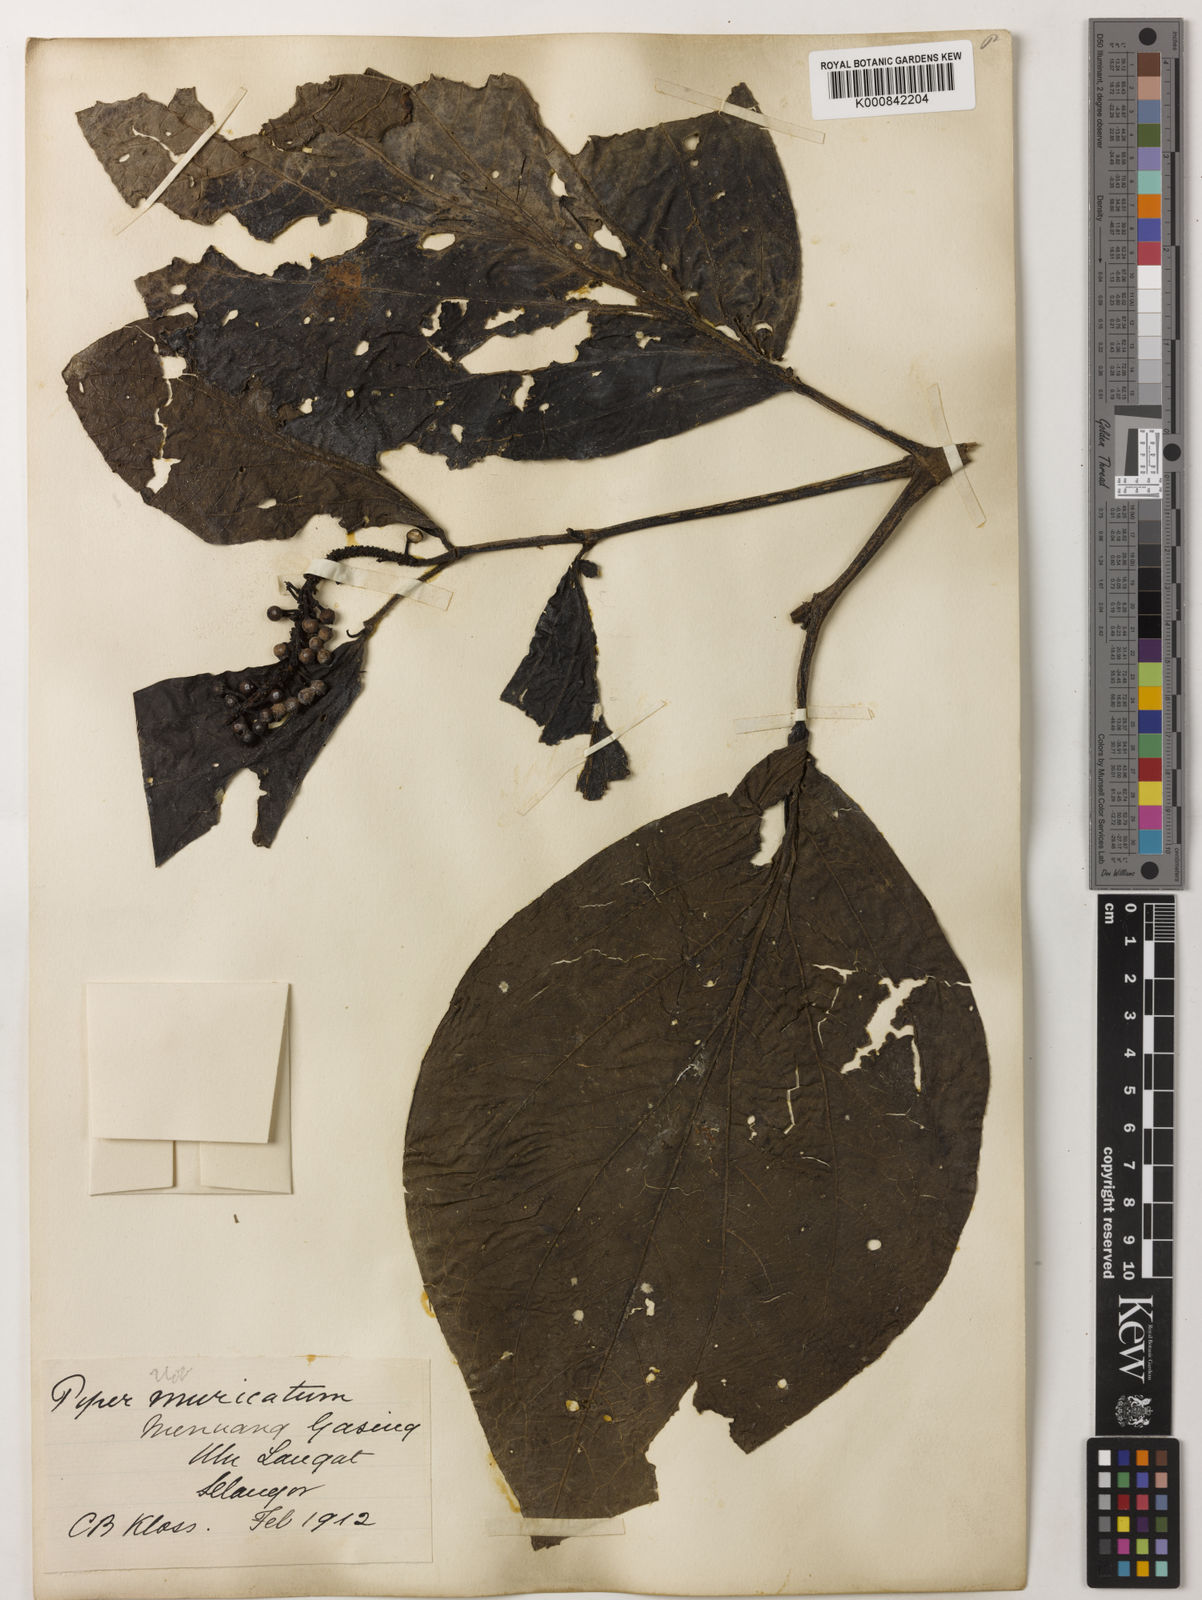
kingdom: Plantae
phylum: Tracheophyta
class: Magnoliopsida
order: Piperales
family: Piperaceae
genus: Piper
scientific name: Piper muricatum
